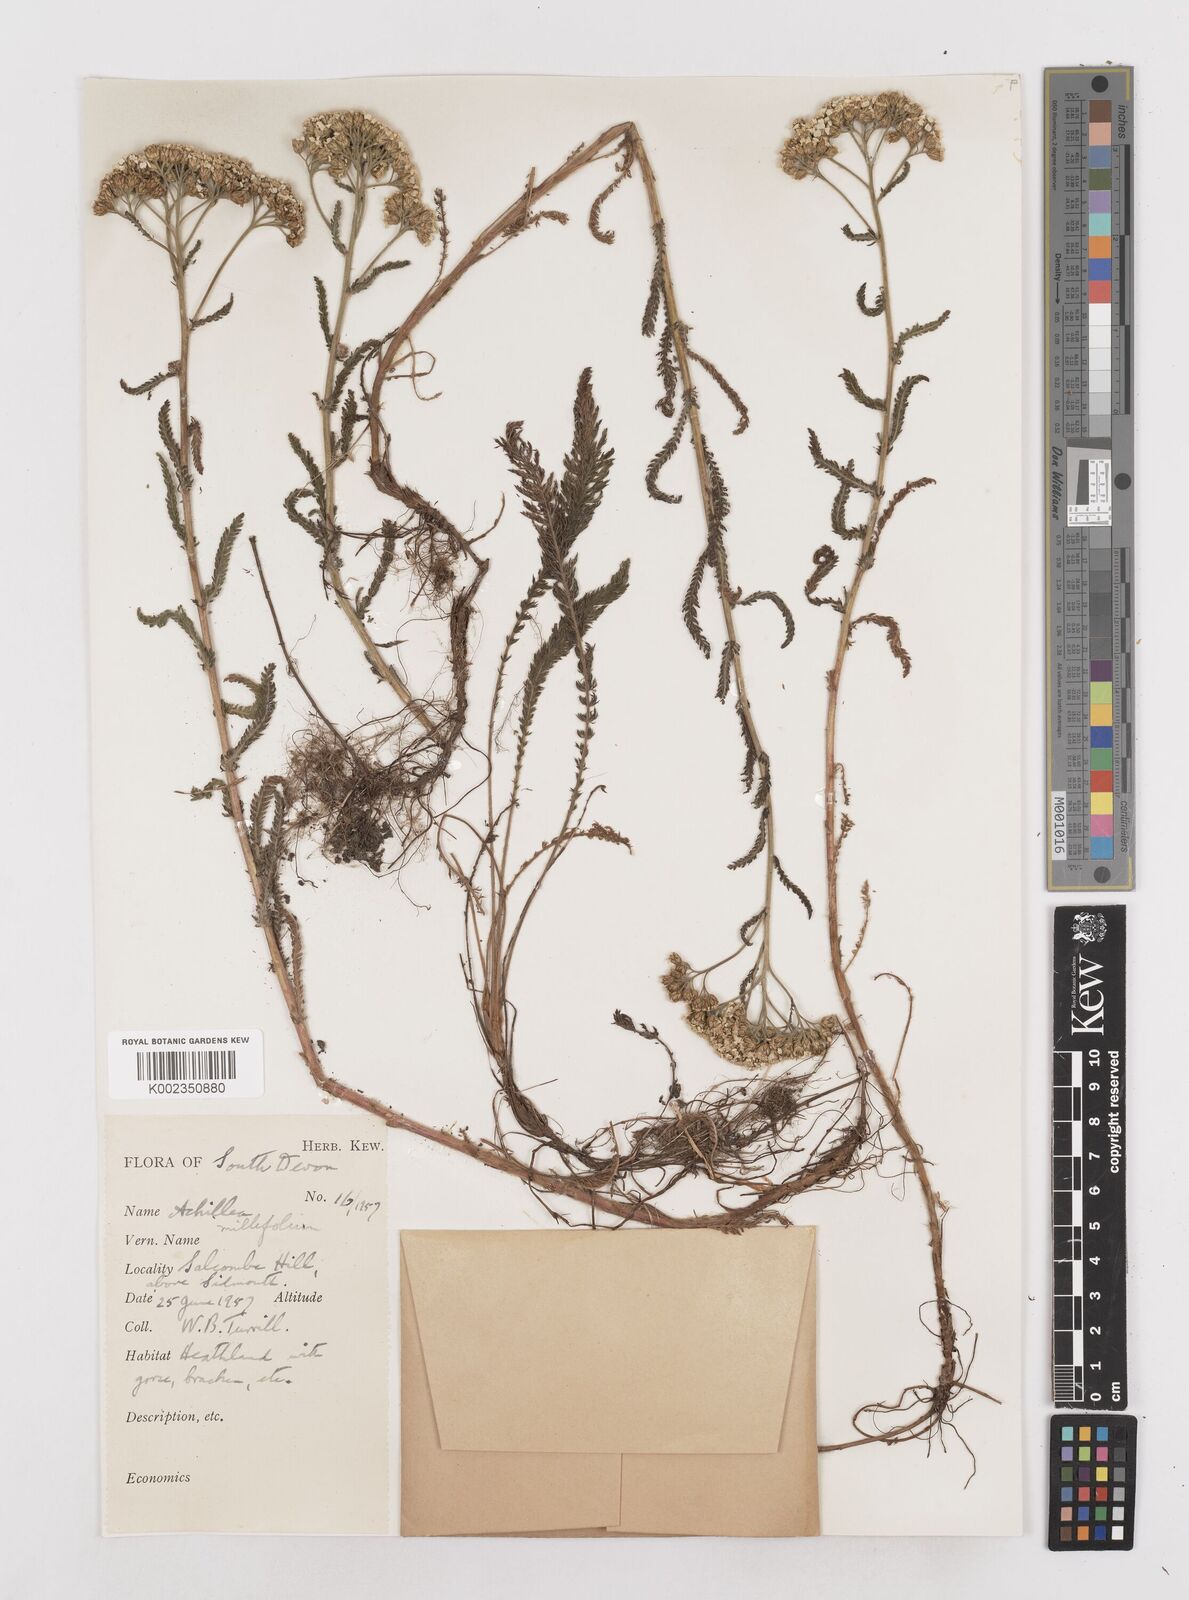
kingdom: Plantae
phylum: Tracheophyta
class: Magnoliopsida
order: Asterales
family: Asteraceae
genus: Achillea
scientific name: Achillea millefolium
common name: Yarrow
